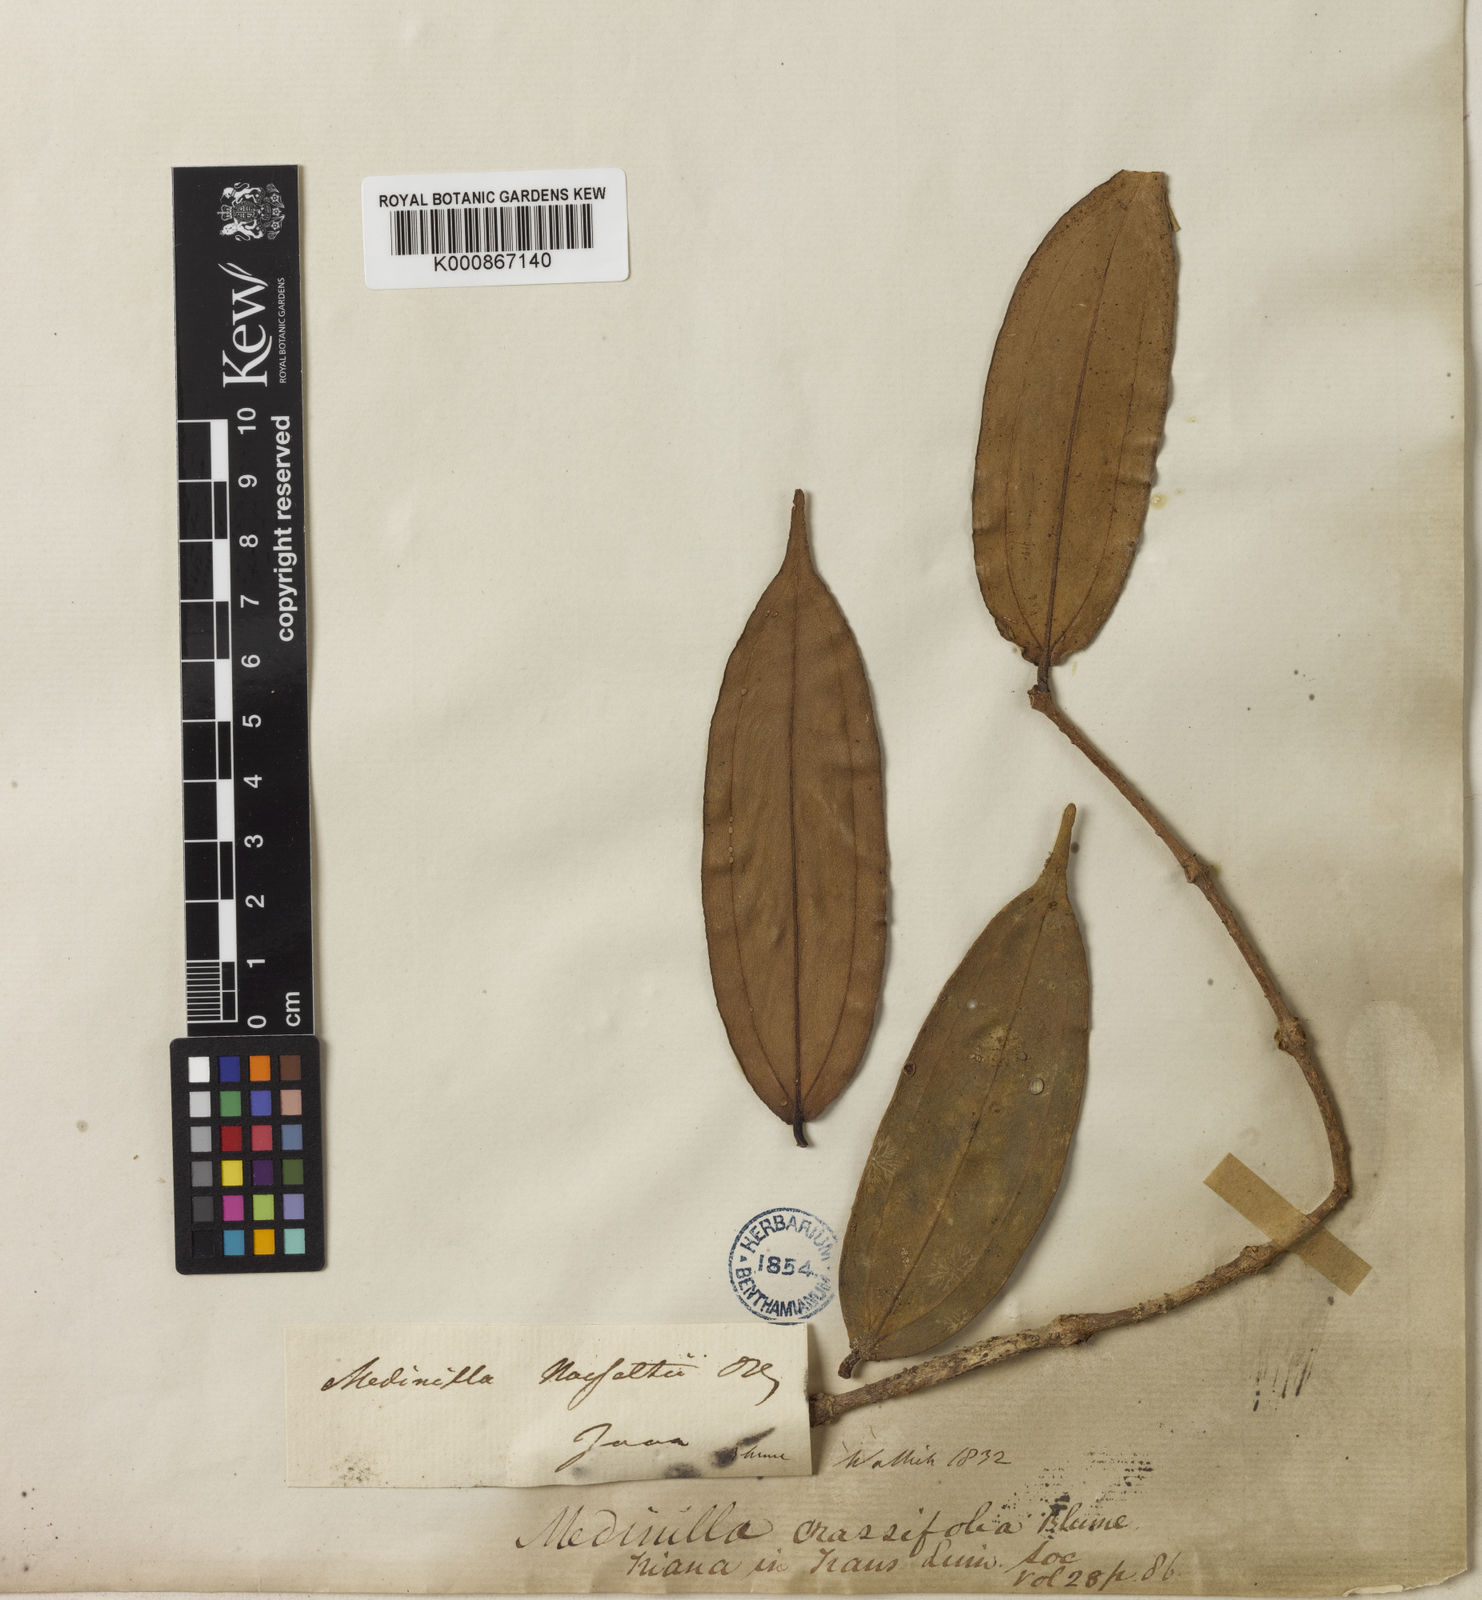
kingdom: Plantae
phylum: Tracheophyta
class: Magnoliopsida
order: Myrtales
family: Melastomataceae
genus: Medinilla
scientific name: Medinilla crassifolia
